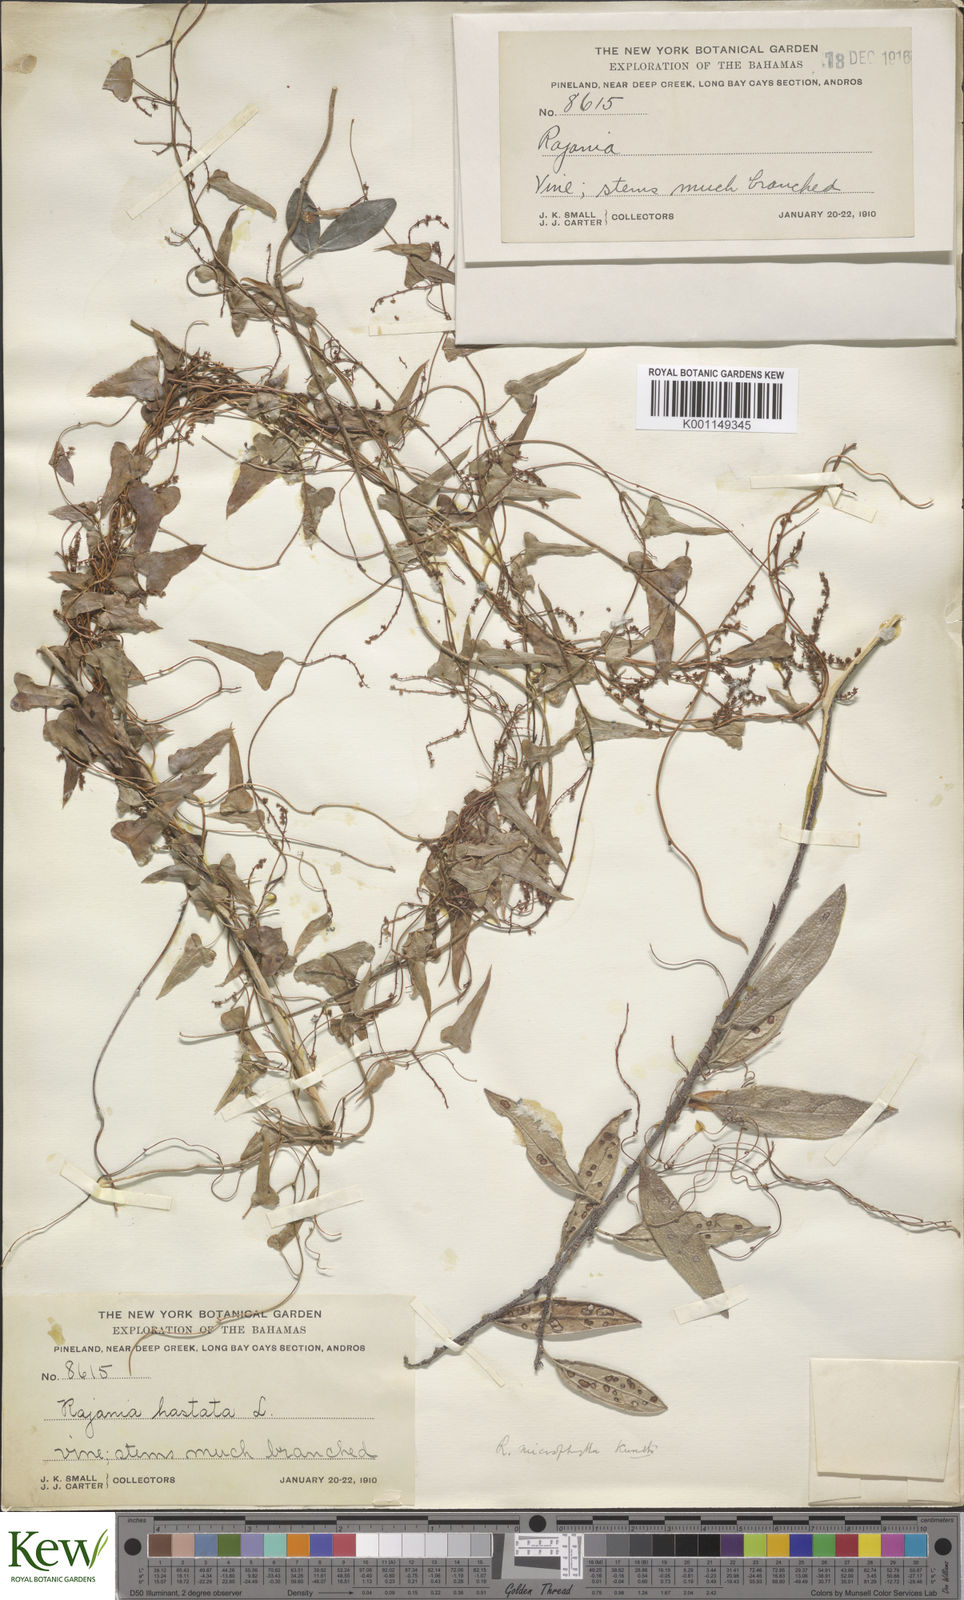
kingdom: Plantae
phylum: Tracheophyta
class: Liliopsida
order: Dioscoreales
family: Dioscoreaceae
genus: Dioscorea
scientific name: Dioscorea mexicana
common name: Mexican yam
